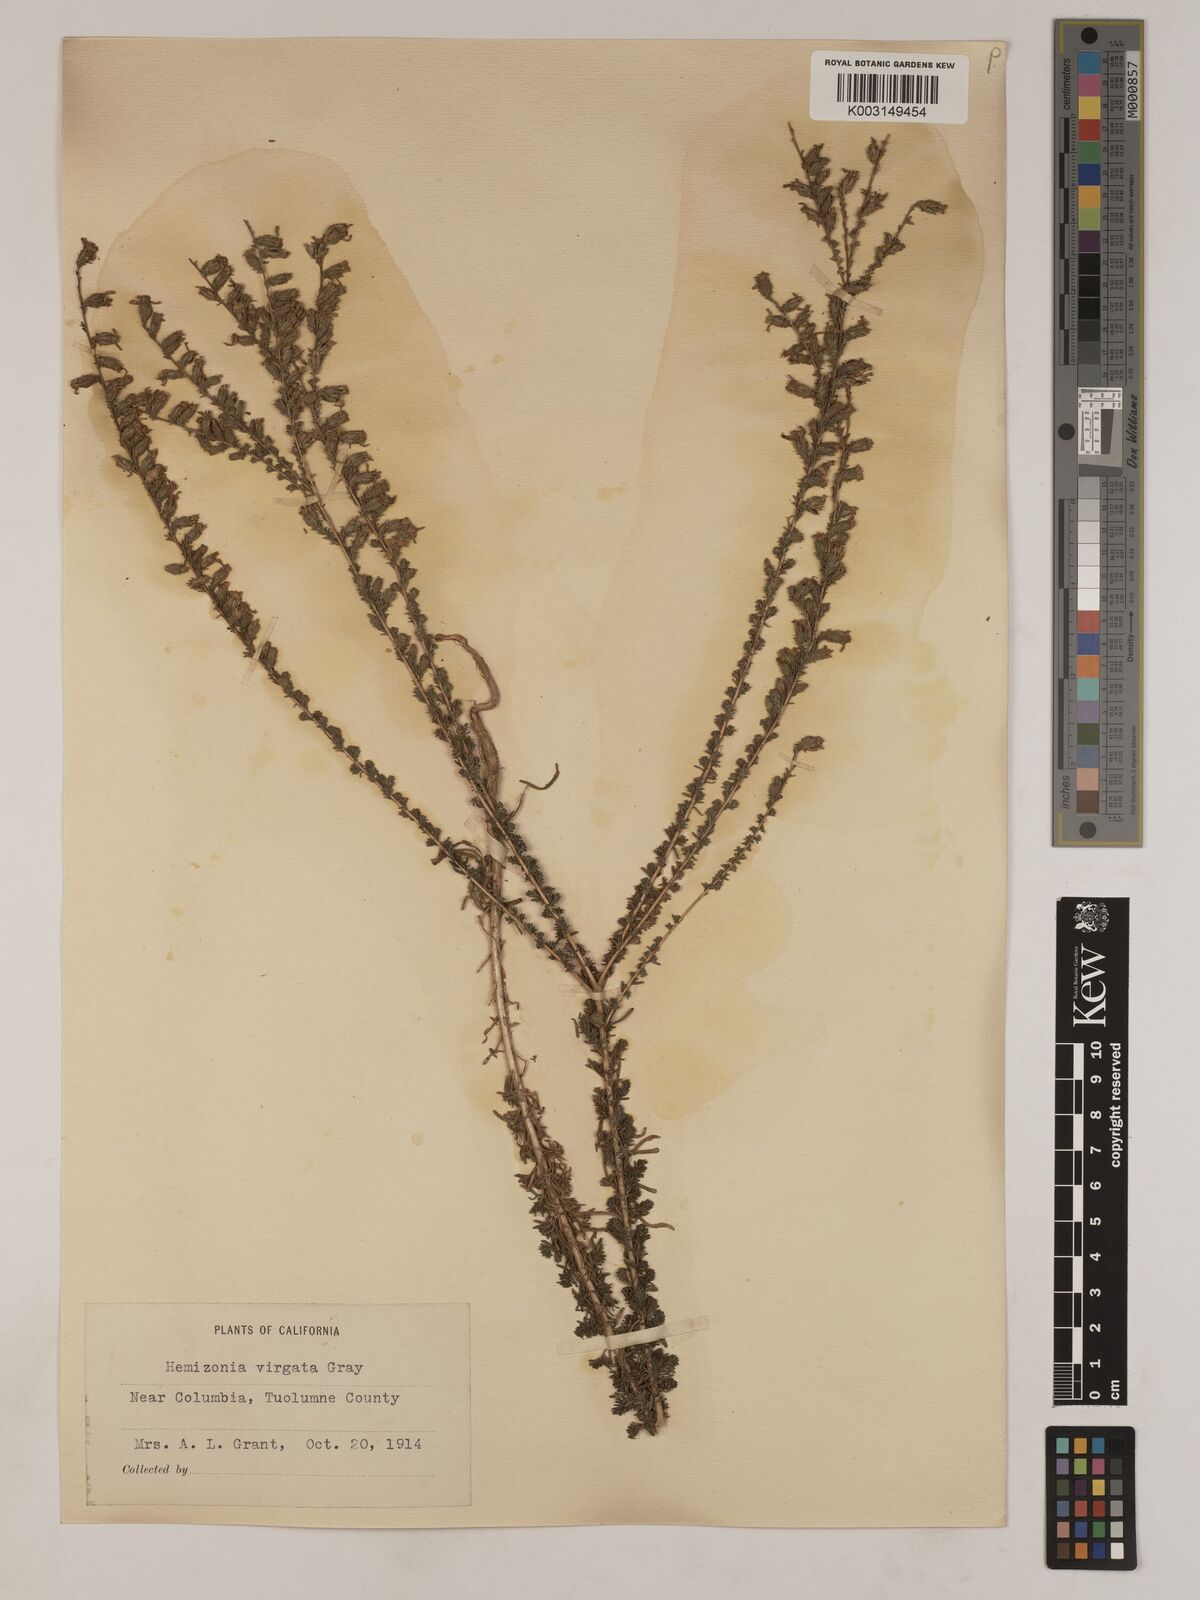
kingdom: Plantae
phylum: Tracheophyta
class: Magnoliopsida
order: Asterales
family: Asteraceae
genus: Holocarpha
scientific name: Holocarpha virgata
